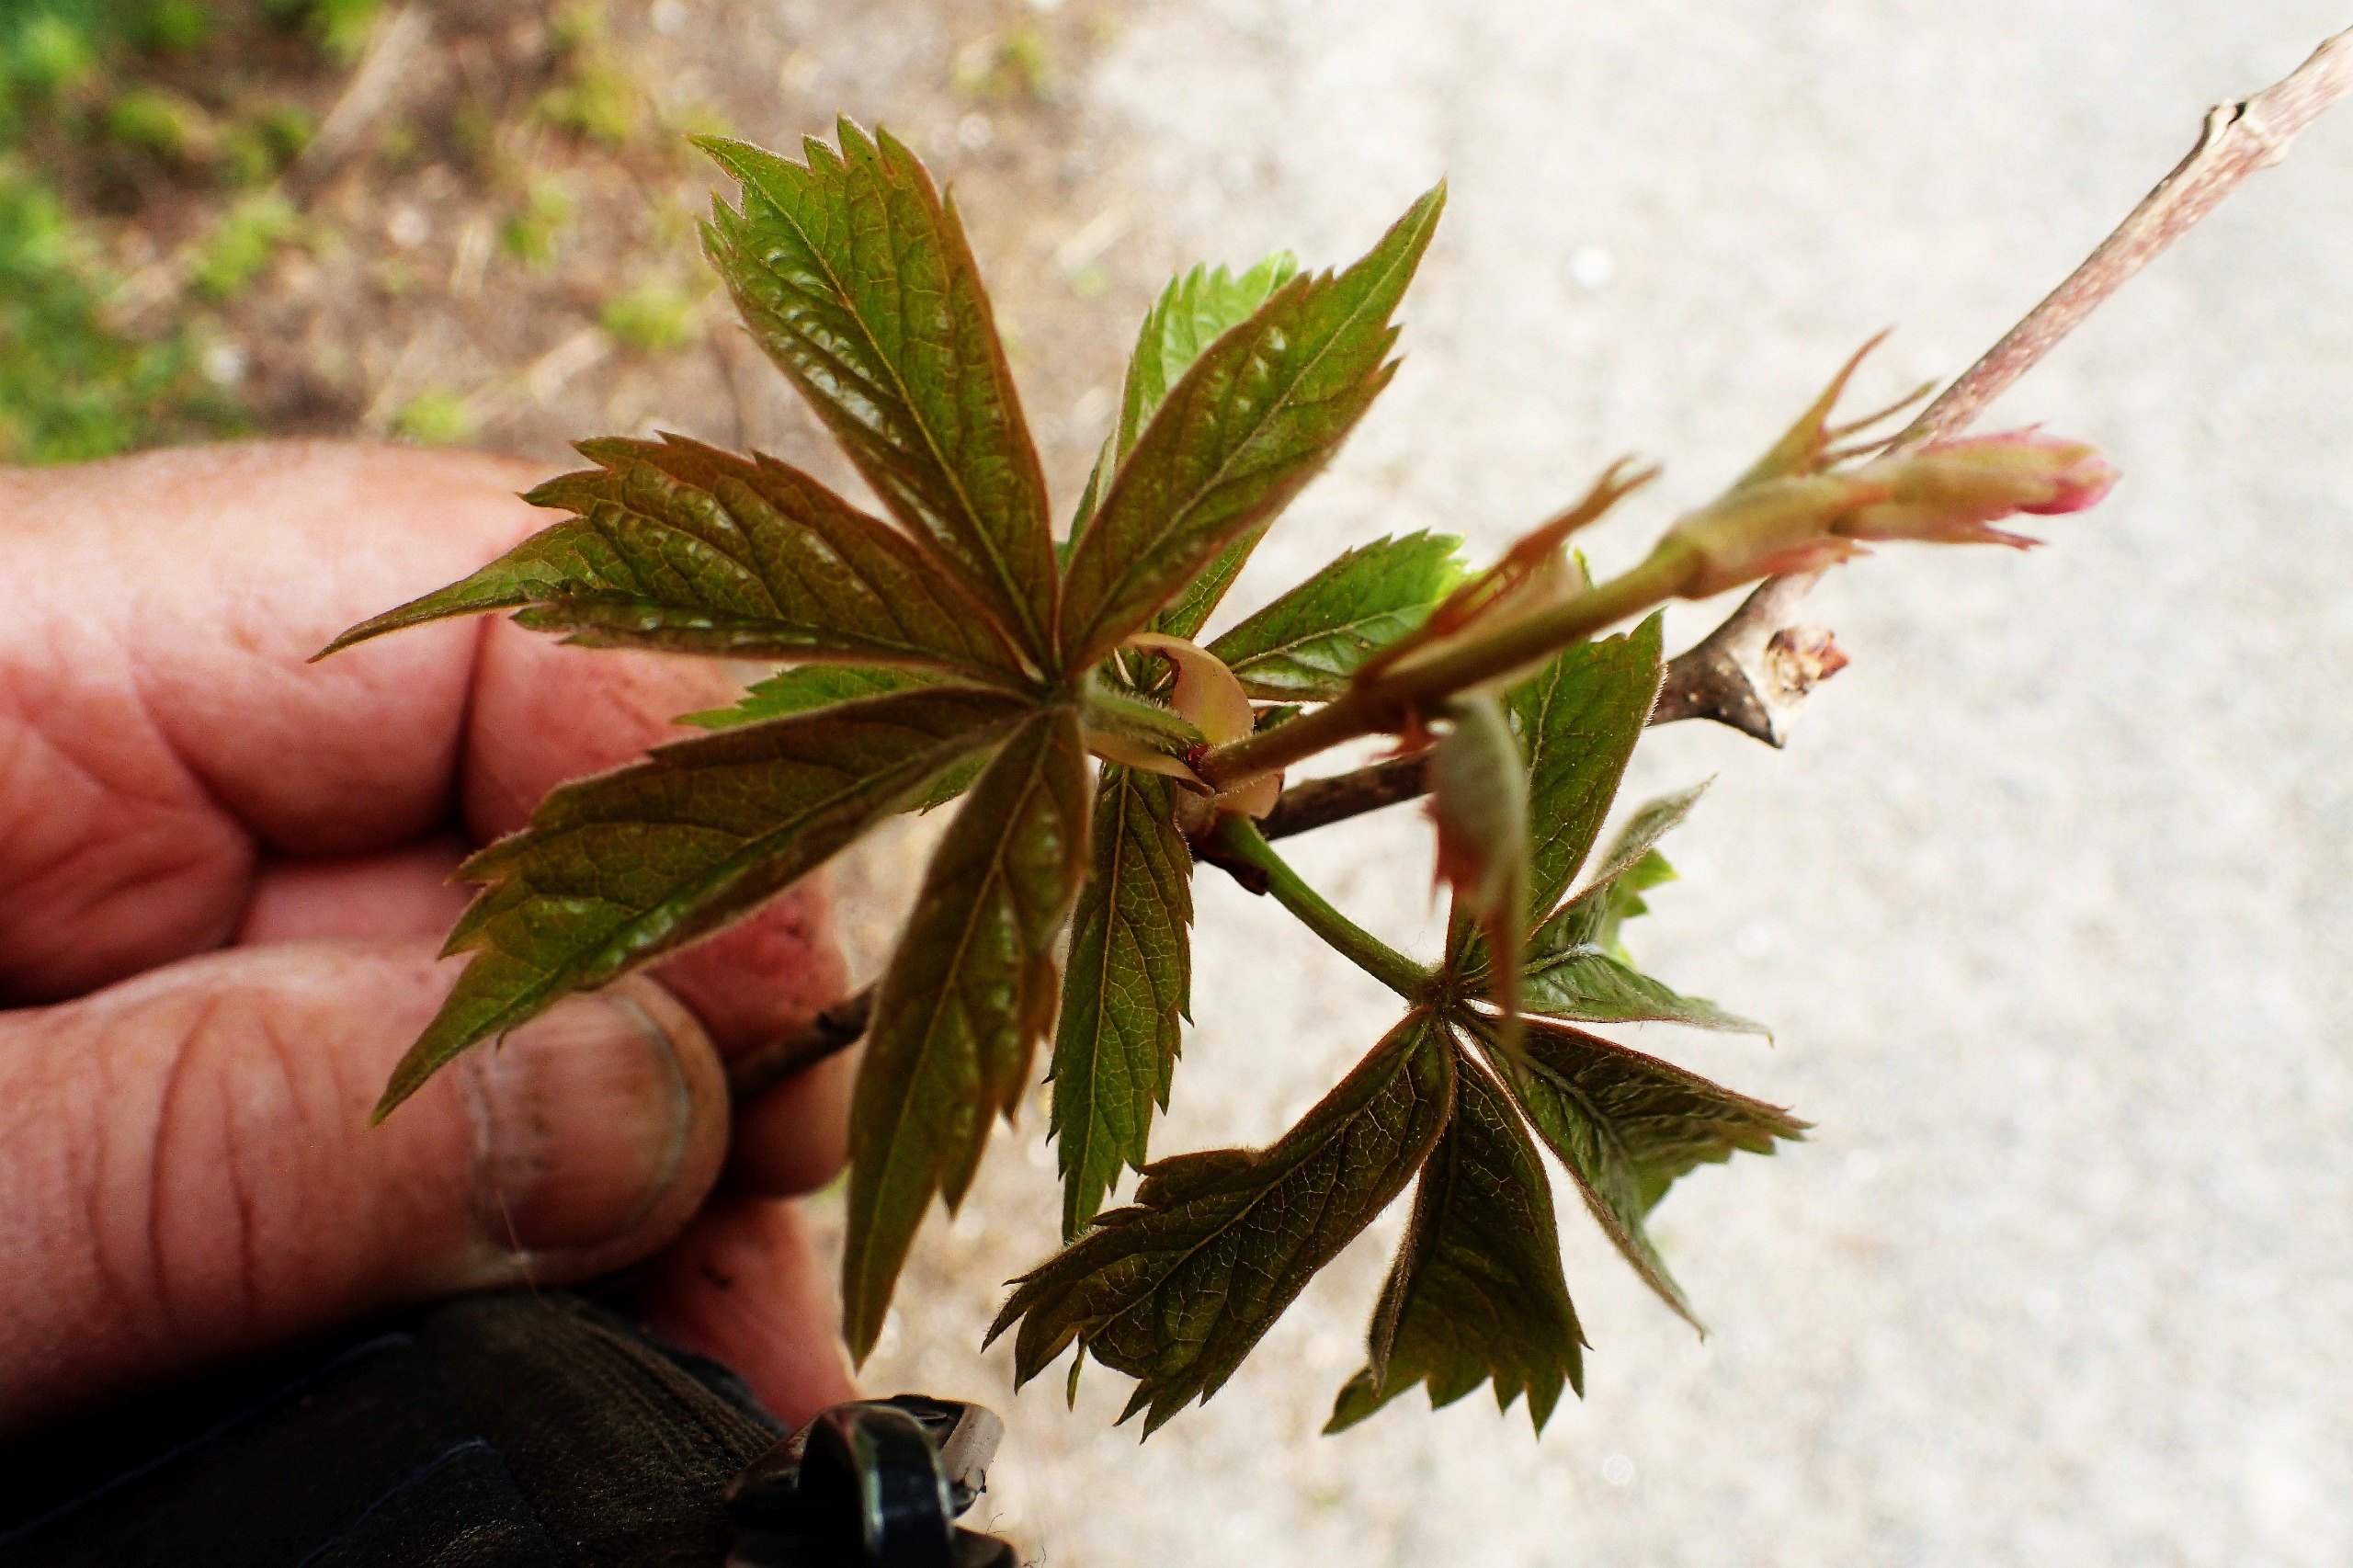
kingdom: Plantae
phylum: Tracheophyta
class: Magnoliopsida
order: Vitales
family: Vitaceae
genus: Parthenocissus
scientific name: Parthenocissus inserta
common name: Vildvin
